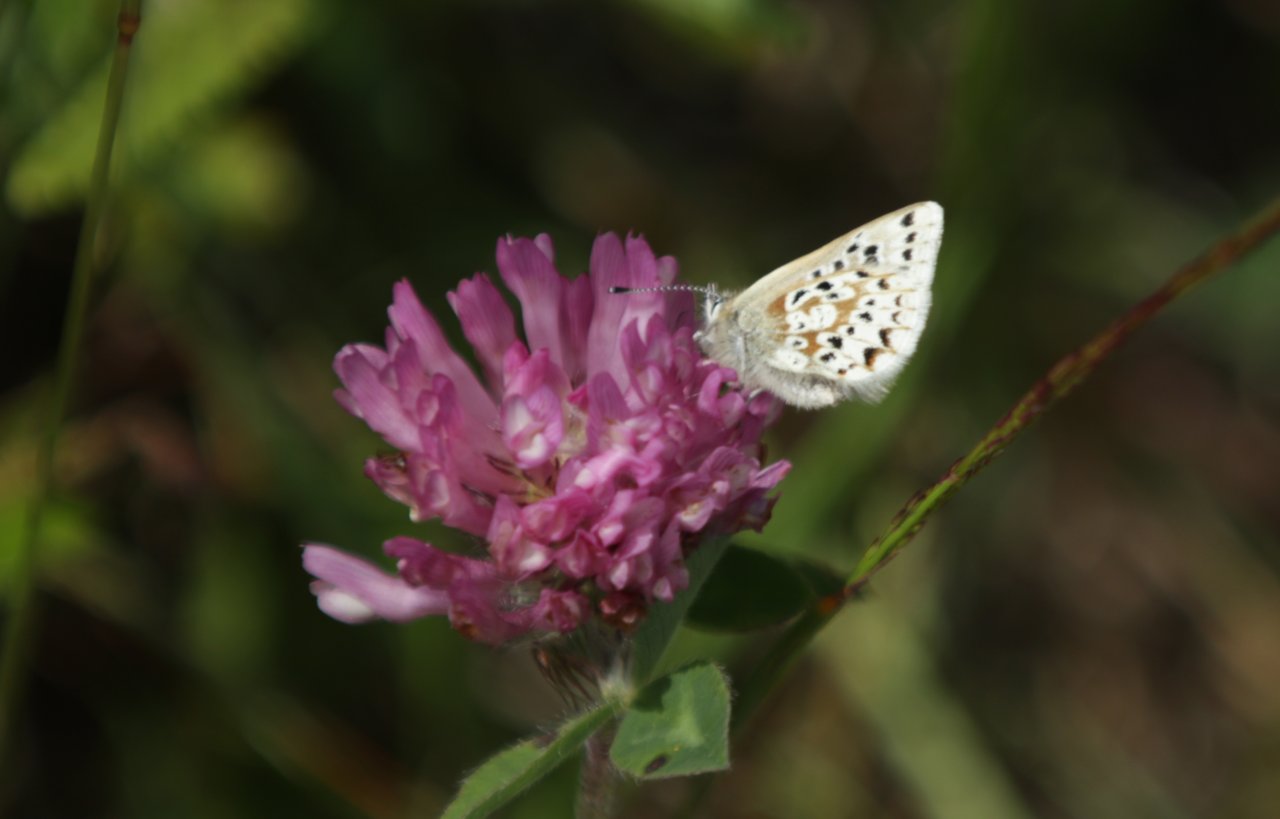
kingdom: Animalia
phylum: Arthropoda
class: Insecta
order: Lepidoptera
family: Lycaenidae
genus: Agriades
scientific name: Agriades glandon
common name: Arctic Blue
